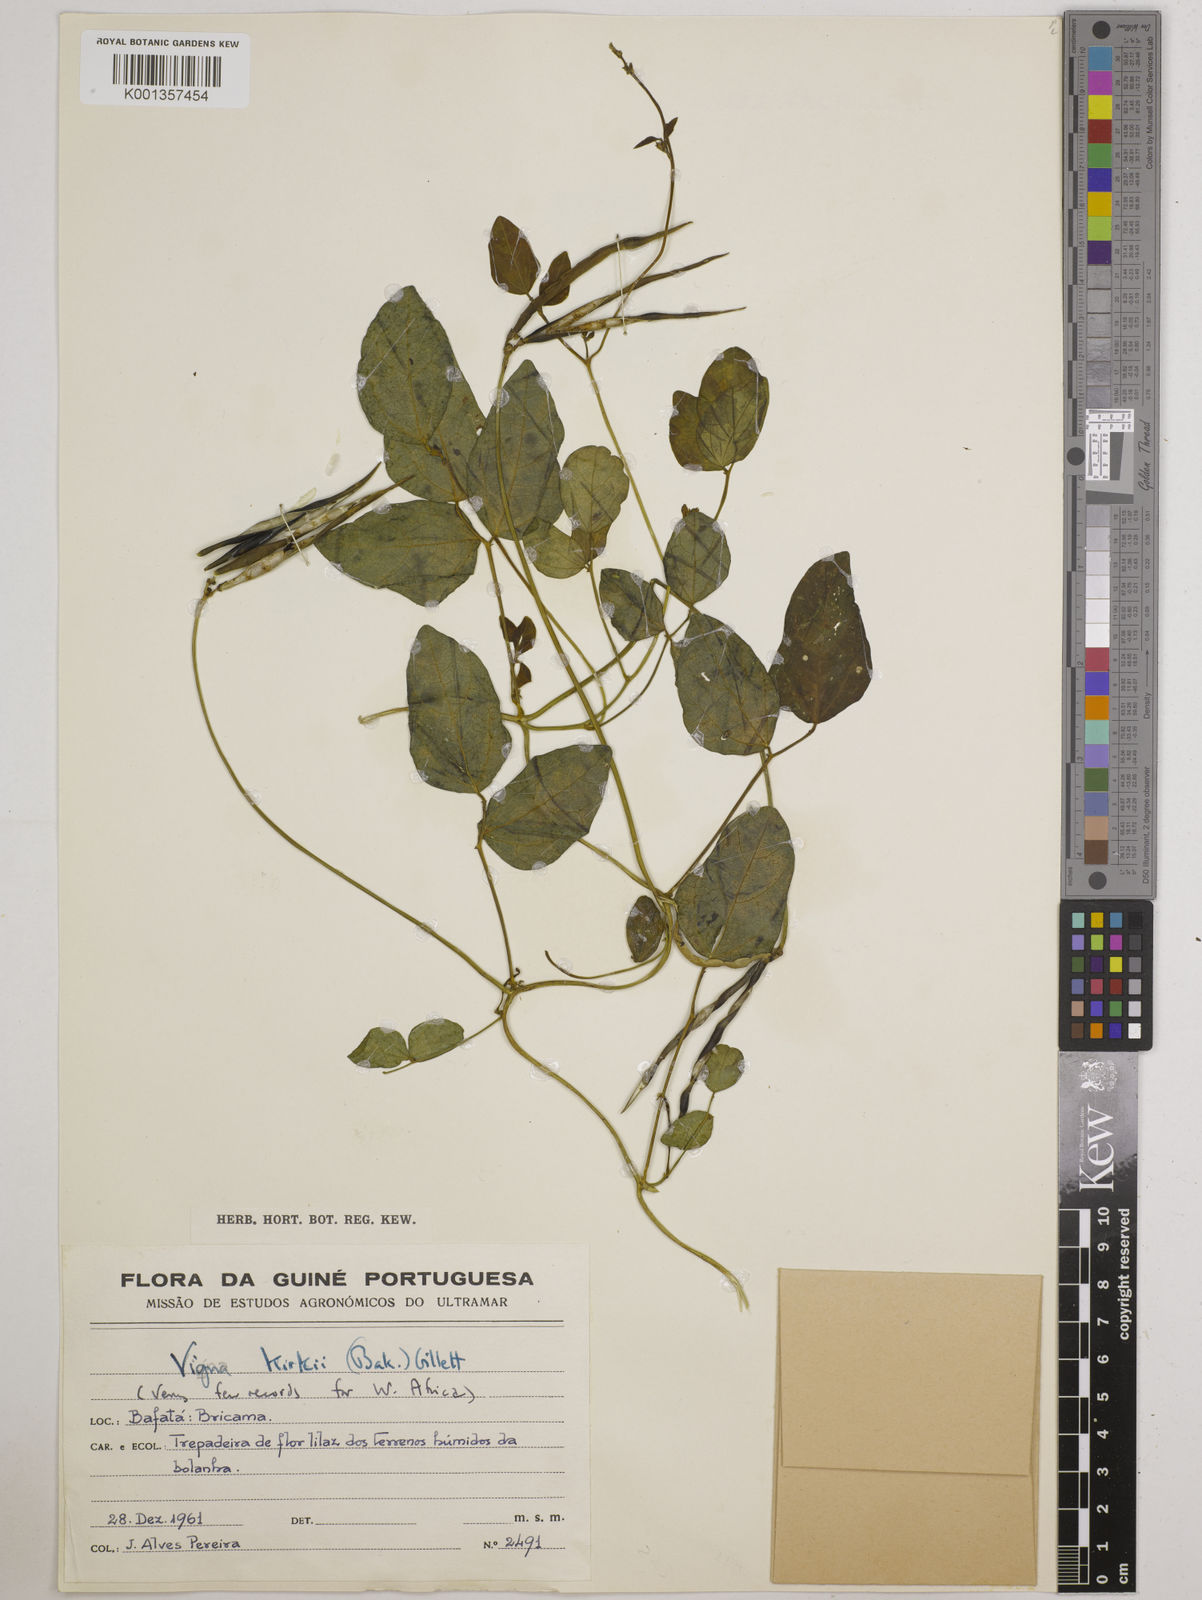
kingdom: Plantae
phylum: Tracheophyta
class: Magnoliopsida
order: Fabales
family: Fabaceae
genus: Vigna
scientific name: Vigna kirkii
